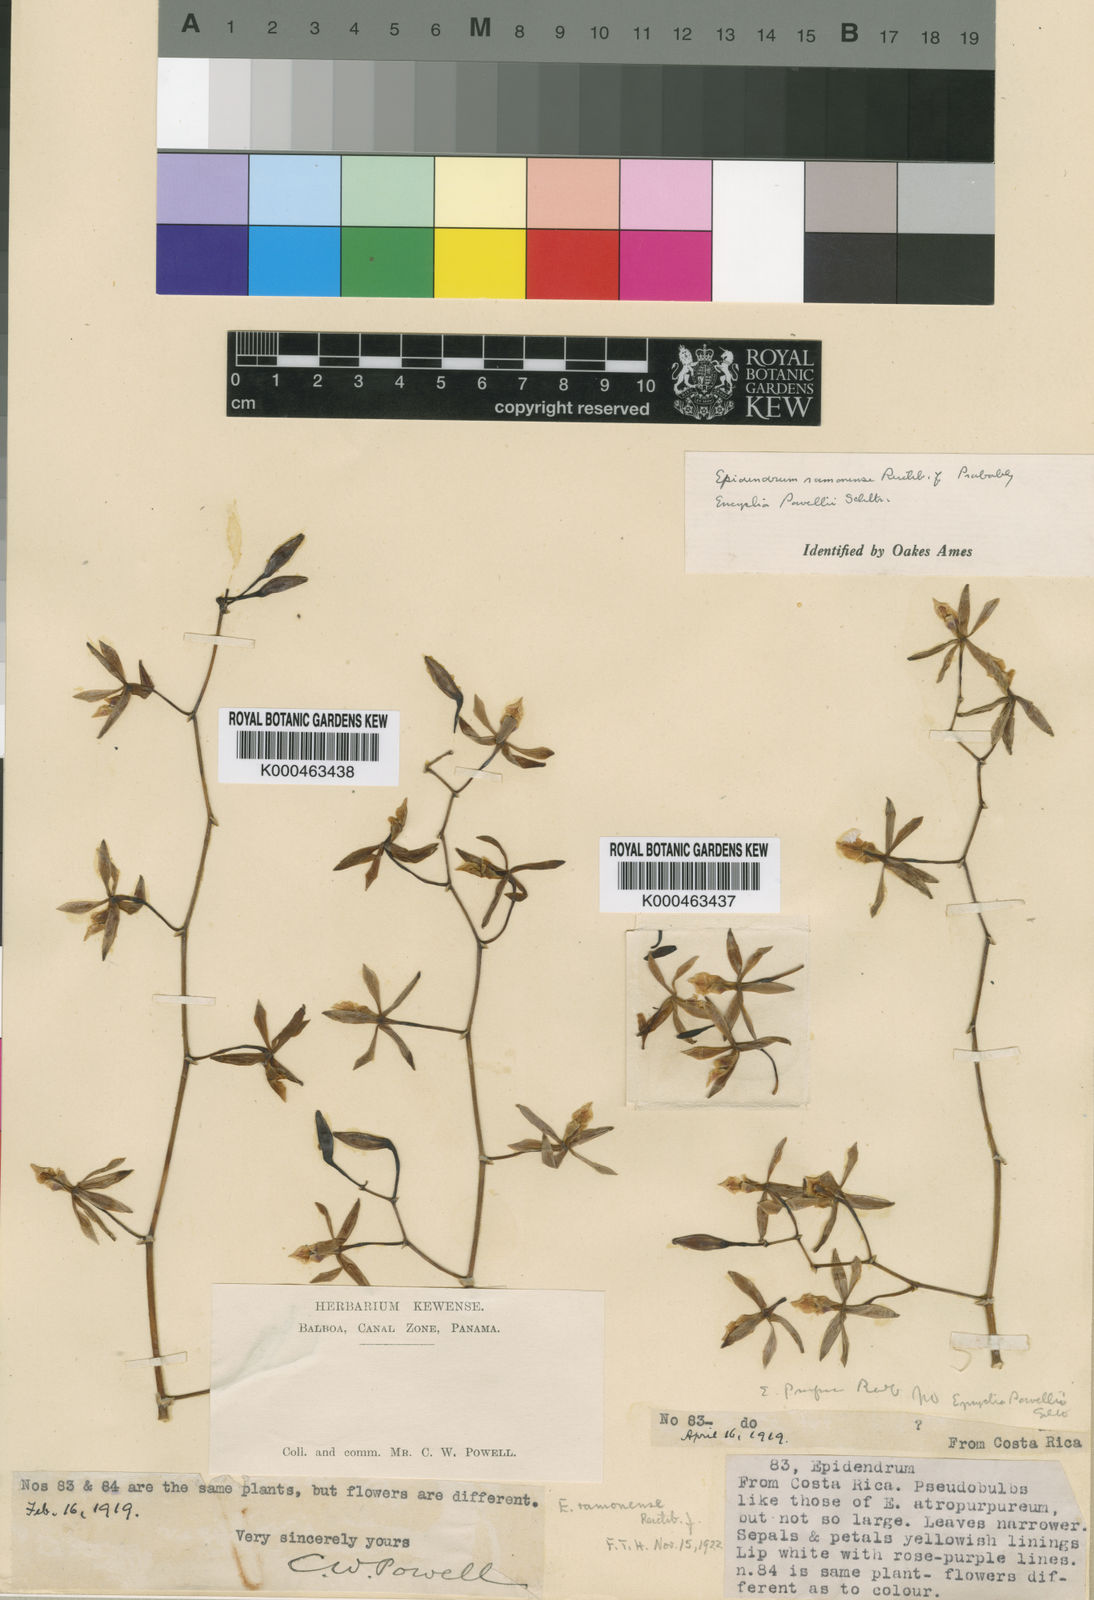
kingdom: Plantae
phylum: Tracheophyta
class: Liliopsida
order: Asparagales
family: Orchidaceae
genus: Encyclia
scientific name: Encyclia ceratistes
